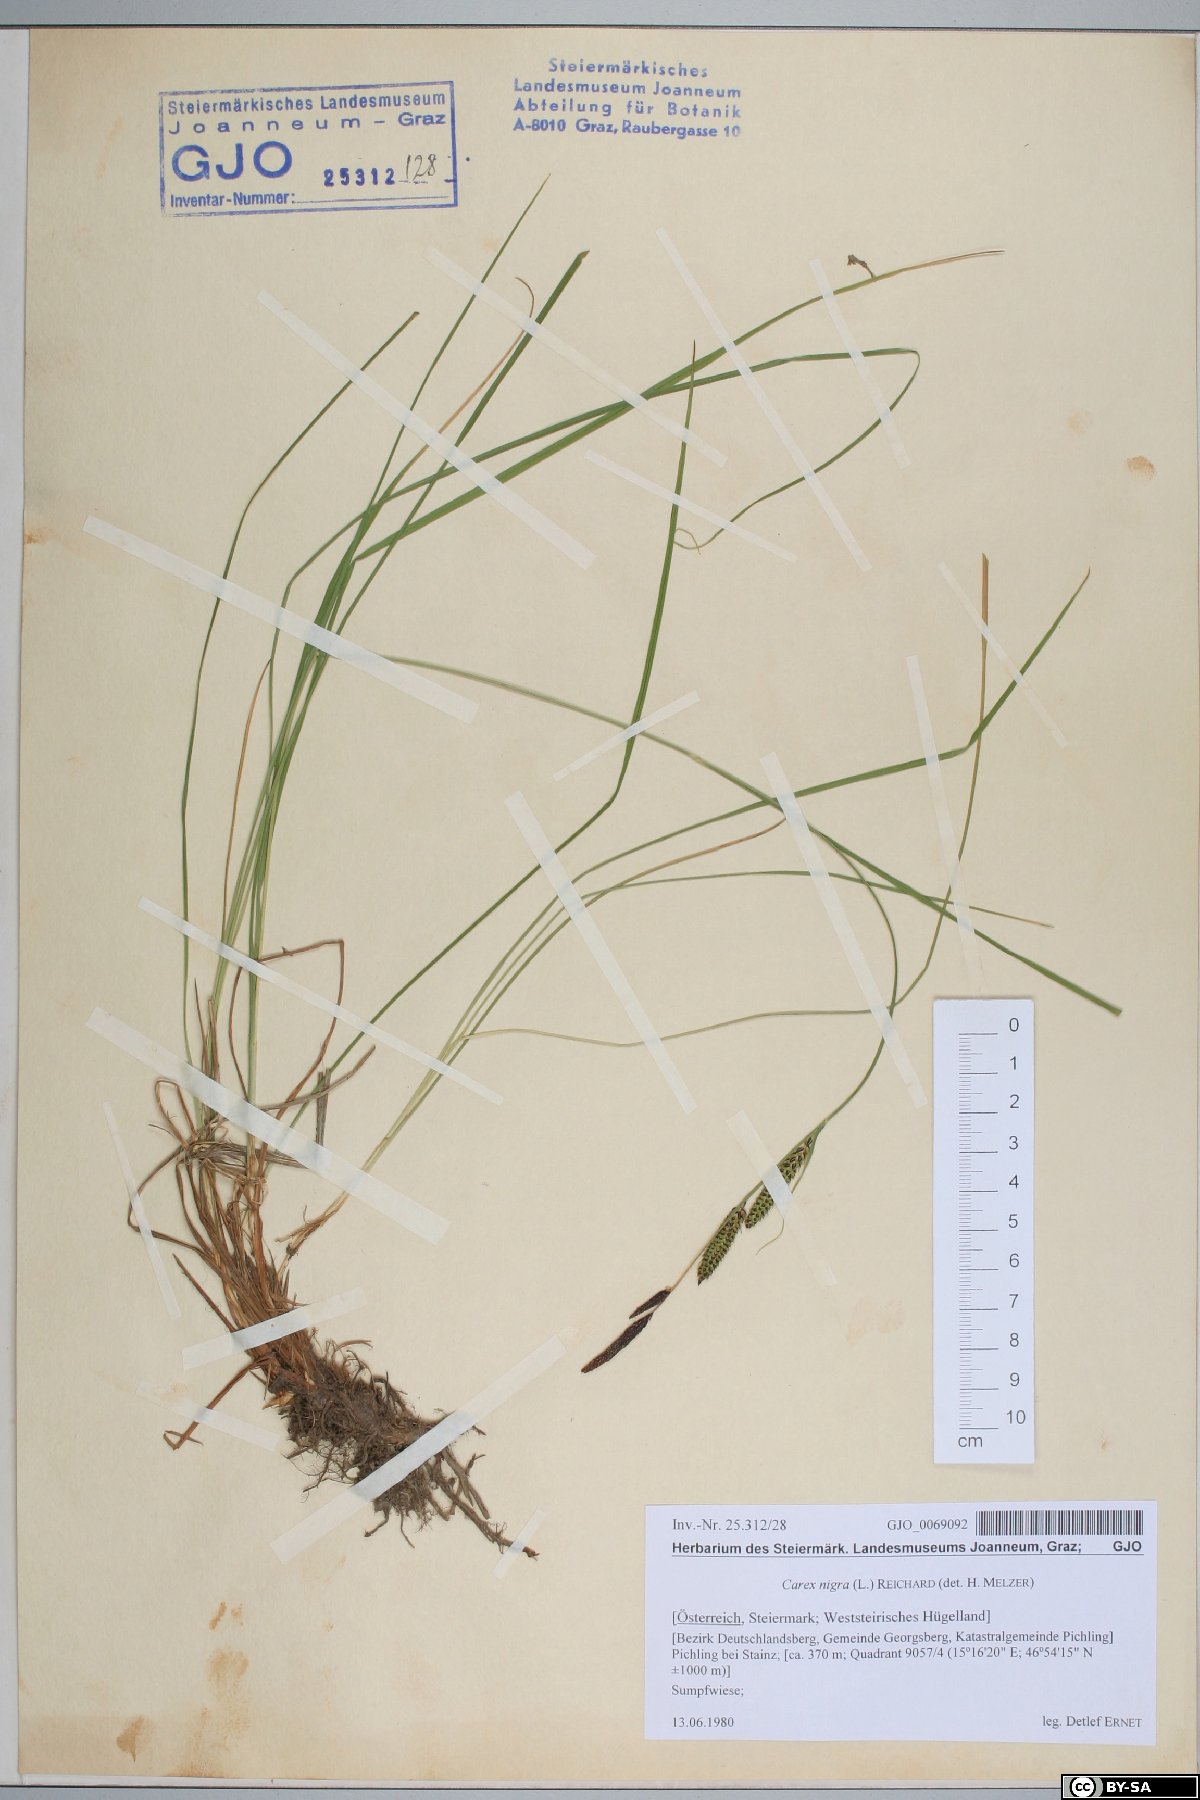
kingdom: Plantae
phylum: Tracheophyta
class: Liliopsida
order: Poales
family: Cyperaceae
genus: Carex
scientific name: Carex nigra
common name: Common sedge
